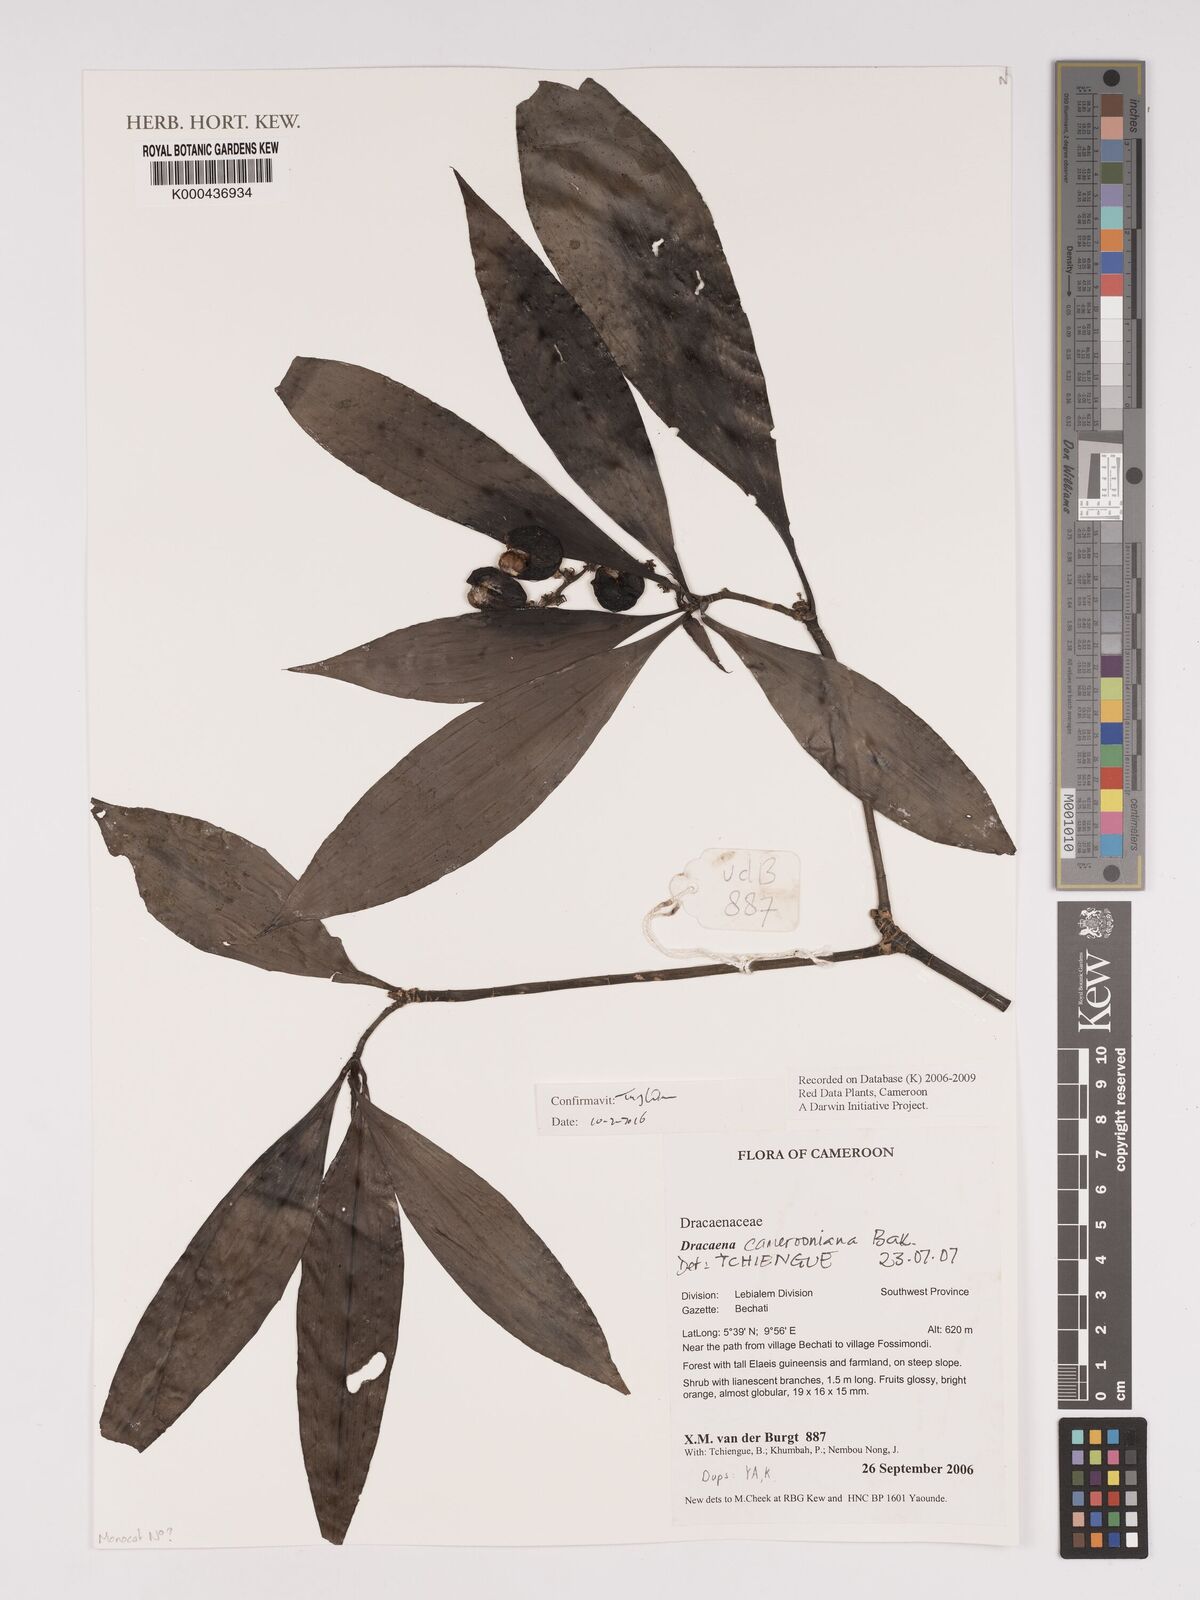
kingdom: Plantae
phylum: Tracheophyta
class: Liliopsida
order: Asparagales
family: Asparagaceae
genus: Dracaena
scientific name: Dracaena camerooniana
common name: Dragon tree
